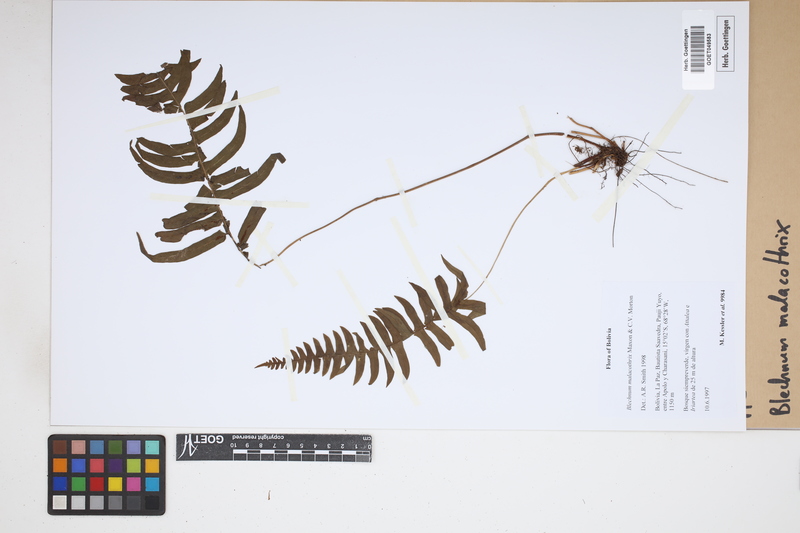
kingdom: Plantae
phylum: Tracheophyta
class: Polypodiopsida
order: Polypodiales
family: Blechnaceae
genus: Blechnum
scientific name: Blechnum malacothrix
